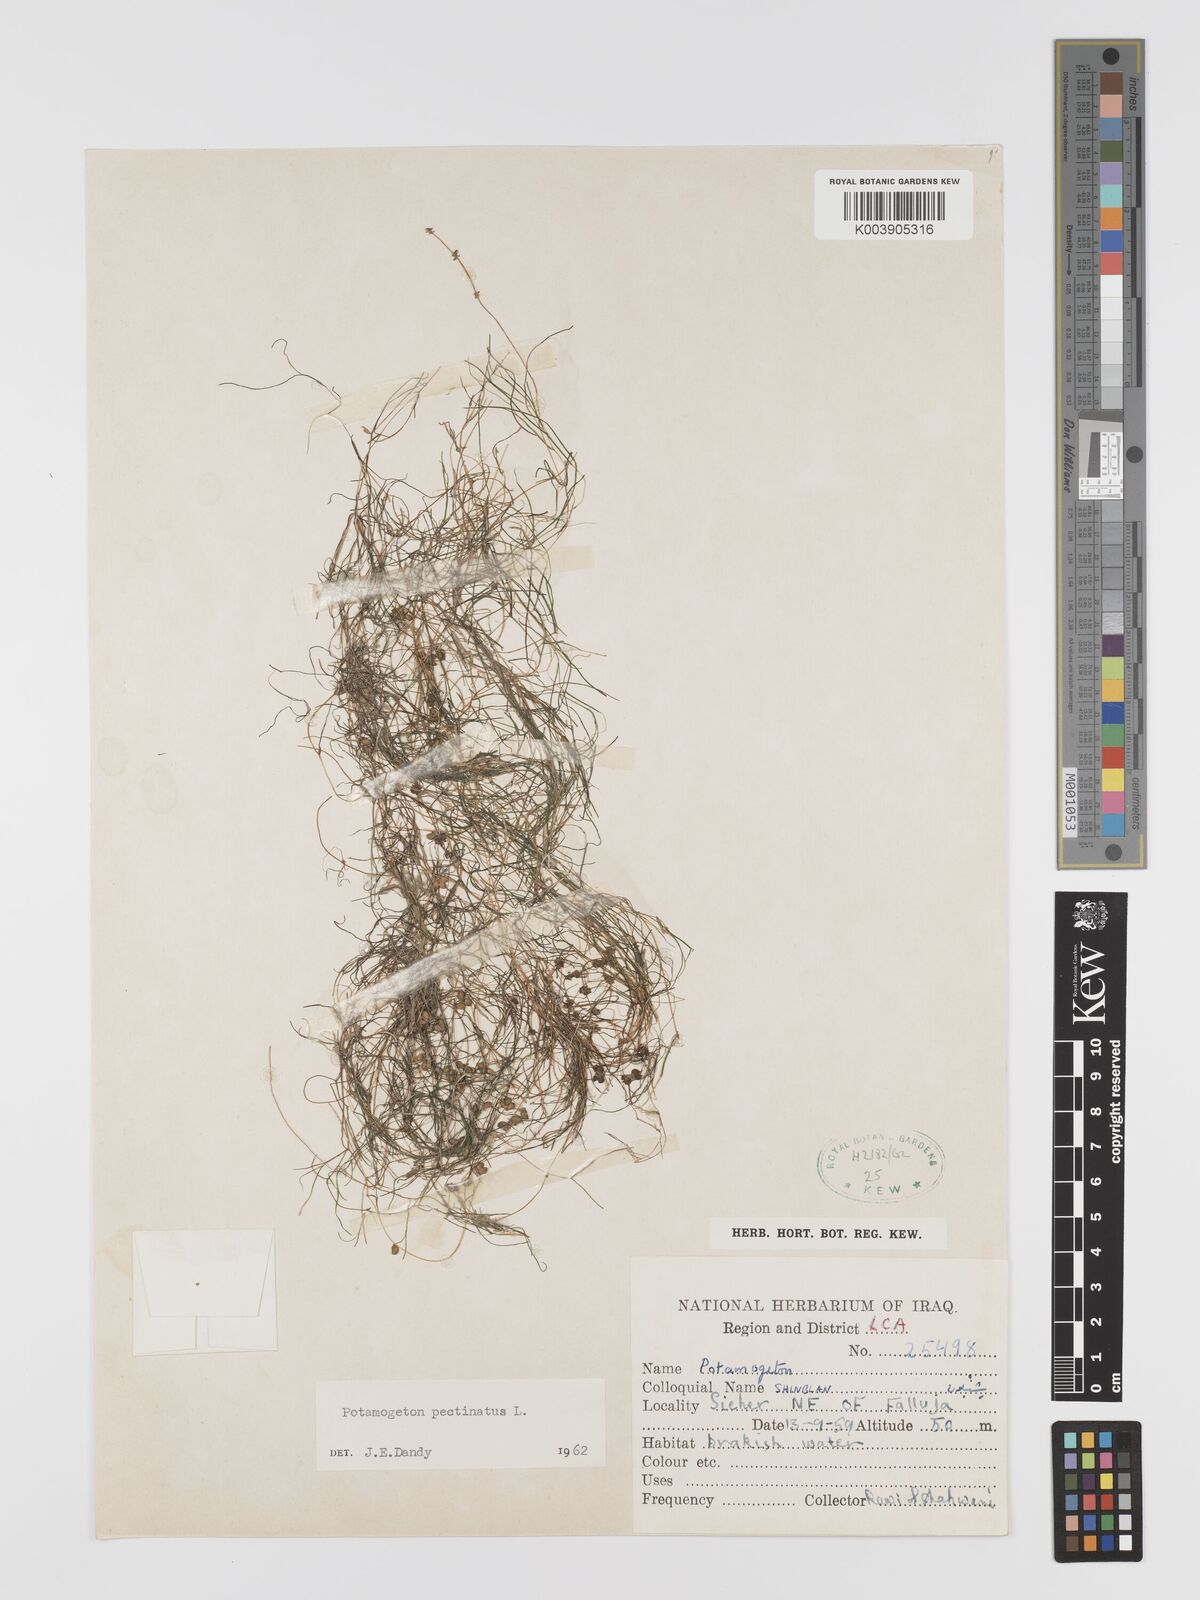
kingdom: Plantae
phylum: Tracheophyta
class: Liliopsida
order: Alismatales
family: Potamogetonaceae
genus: Stuckenia
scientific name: Stuckenia pectinata
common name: Sago pondweed
